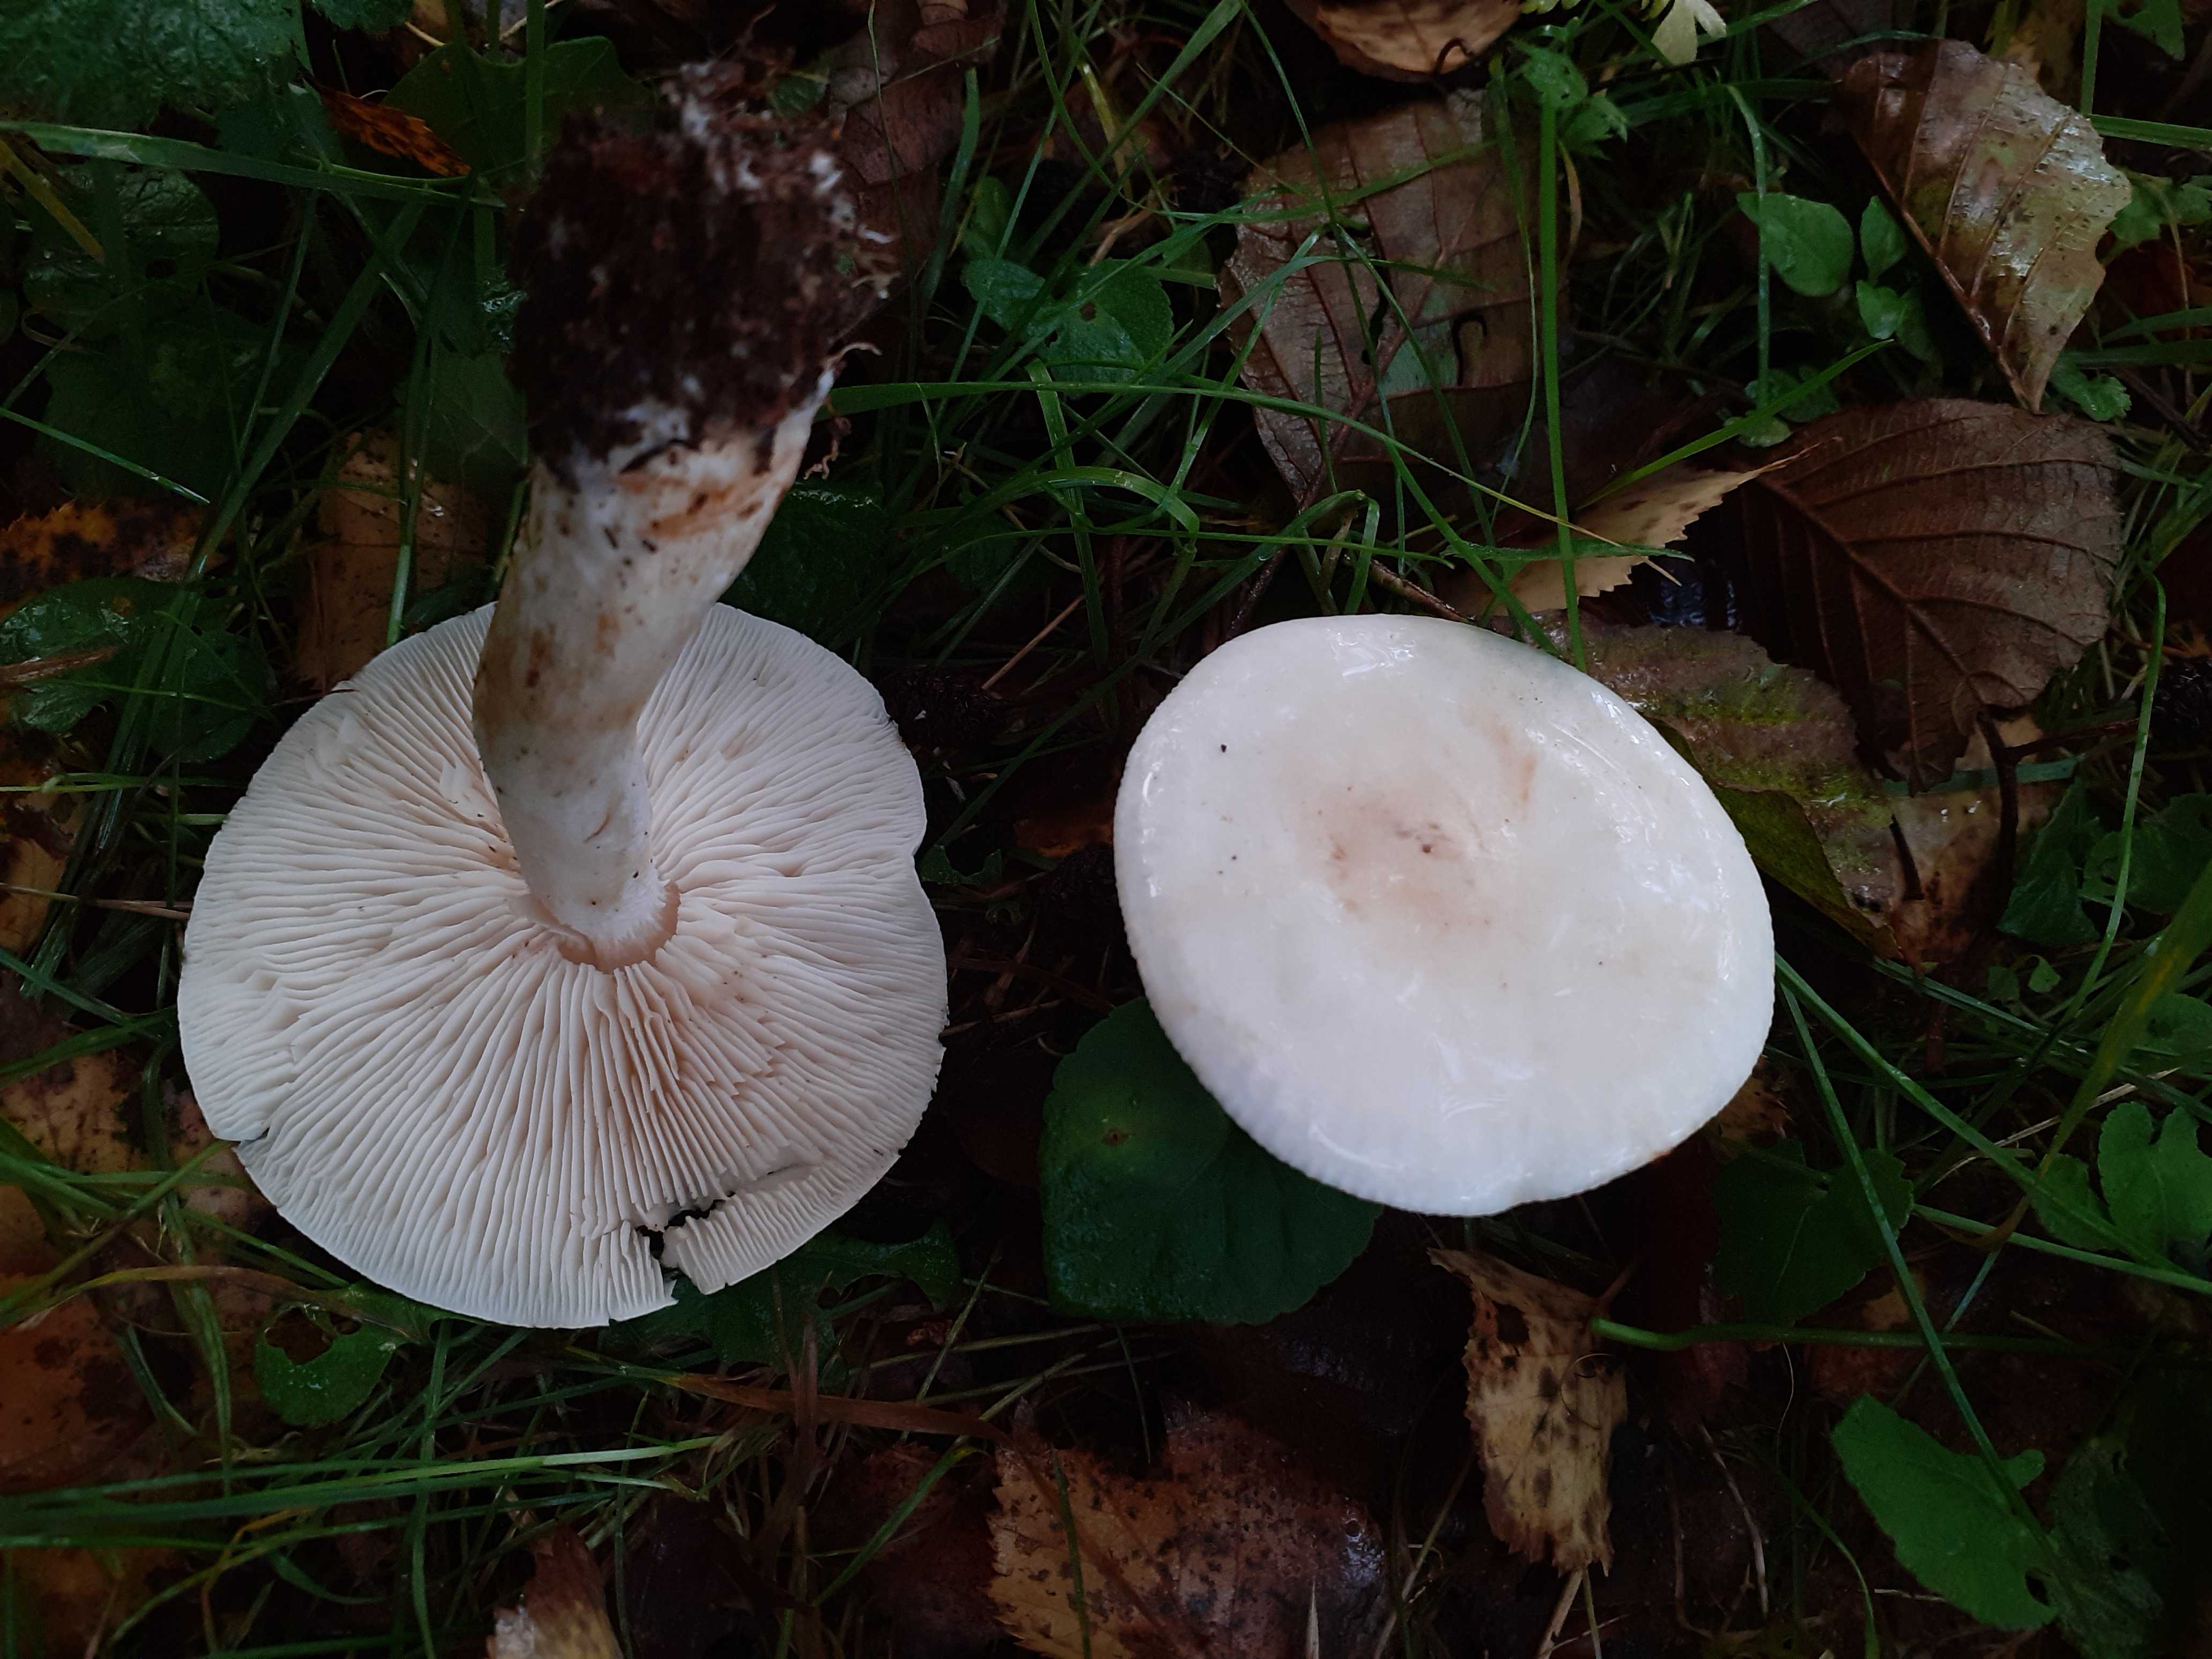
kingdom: Fungi
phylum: Basidiomycota
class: Agaricomycetes
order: Agaricales
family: Tricholomataceae
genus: Tricholoma
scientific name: Tricholoma stiparophyllum
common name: hvid ridderhat
